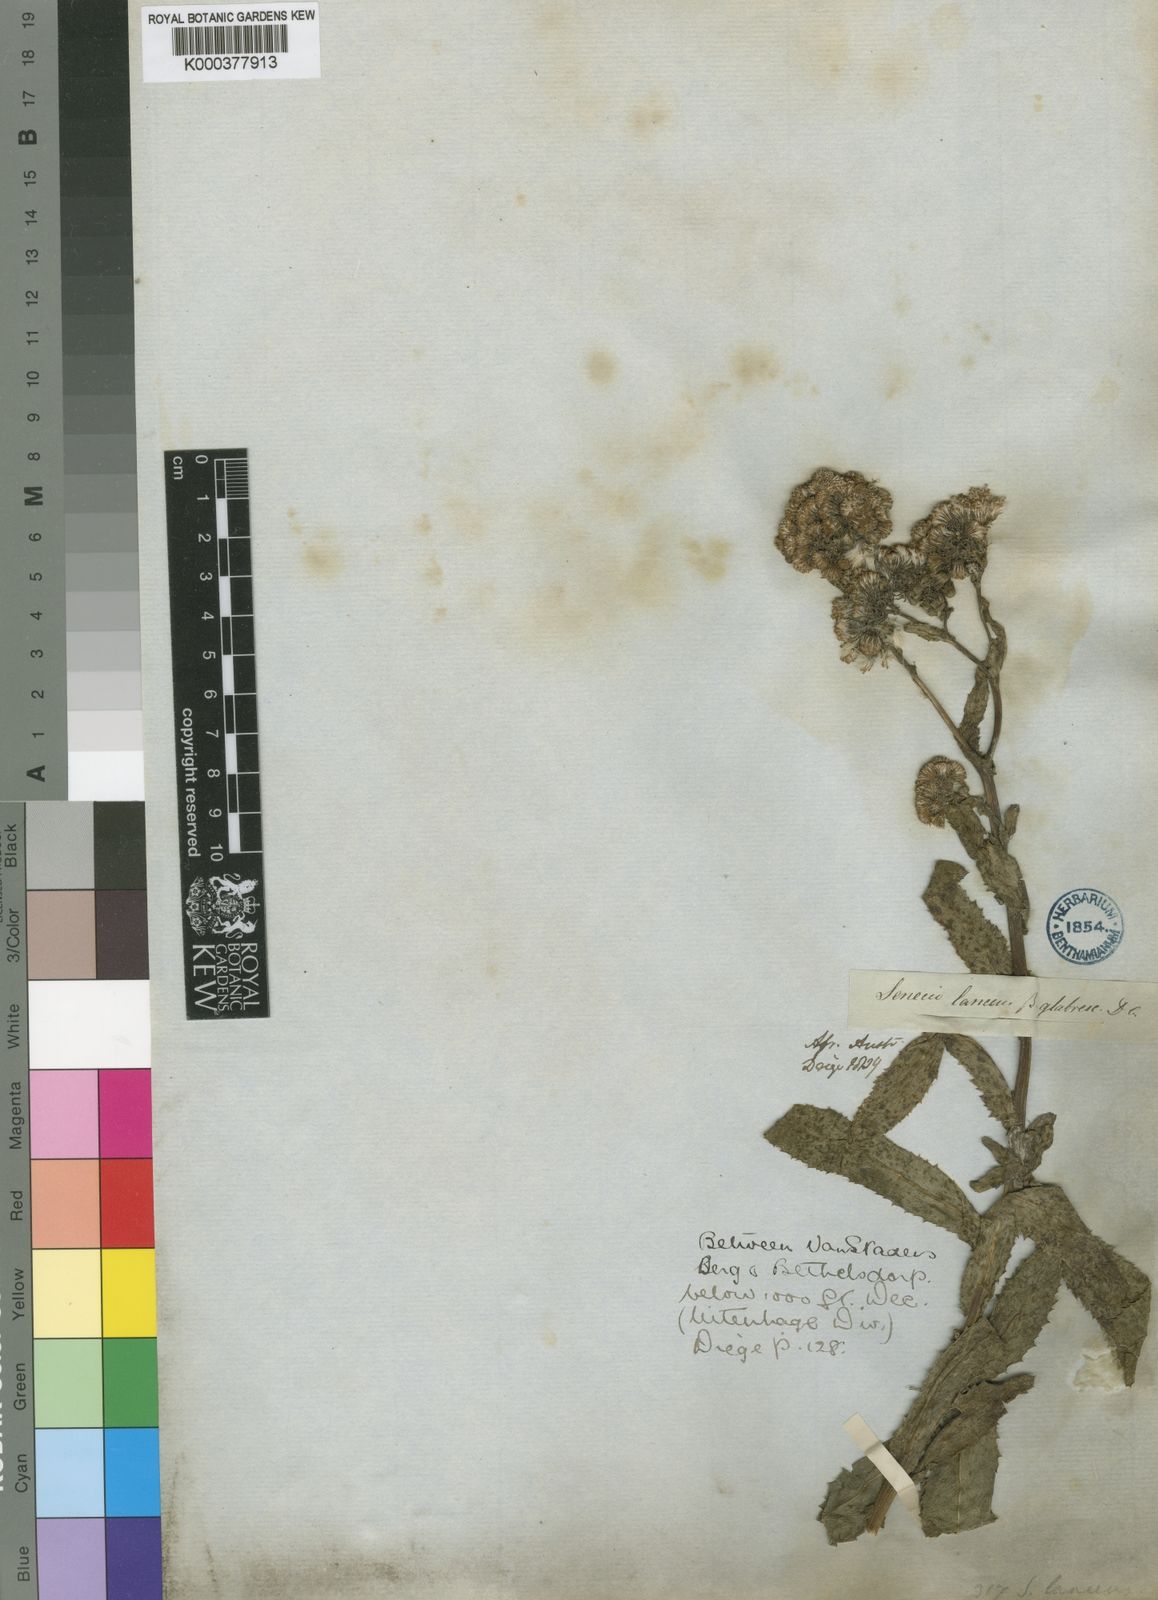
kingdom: Plantae
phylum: Tracheophyta
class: Magnoliopsida
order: Asterales
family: Asteraceae
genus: Senecio
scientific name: Senecio lanceus
